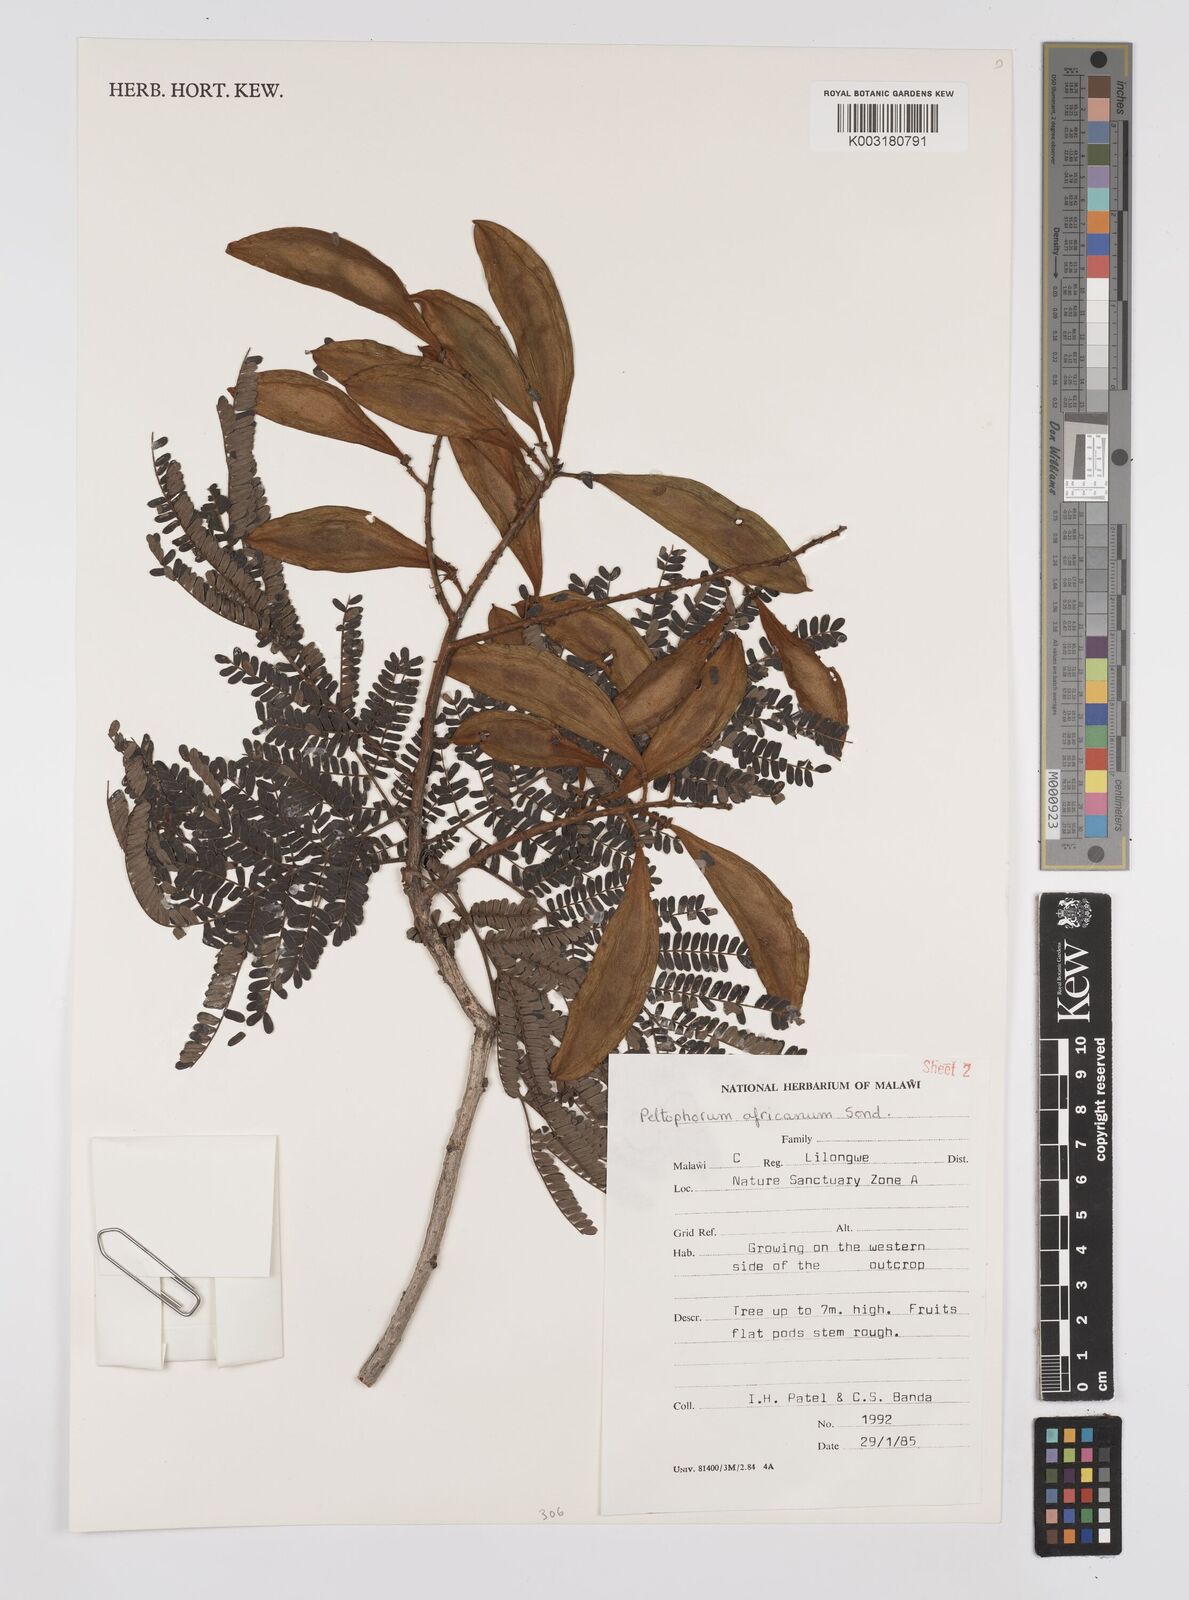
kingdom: Plantae
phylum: Tracheophyta
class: Magnoliopsida
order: Fabales
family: Fabaceae
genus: Peltophorum
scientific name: Peltophorum africanum
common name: African black wattle
